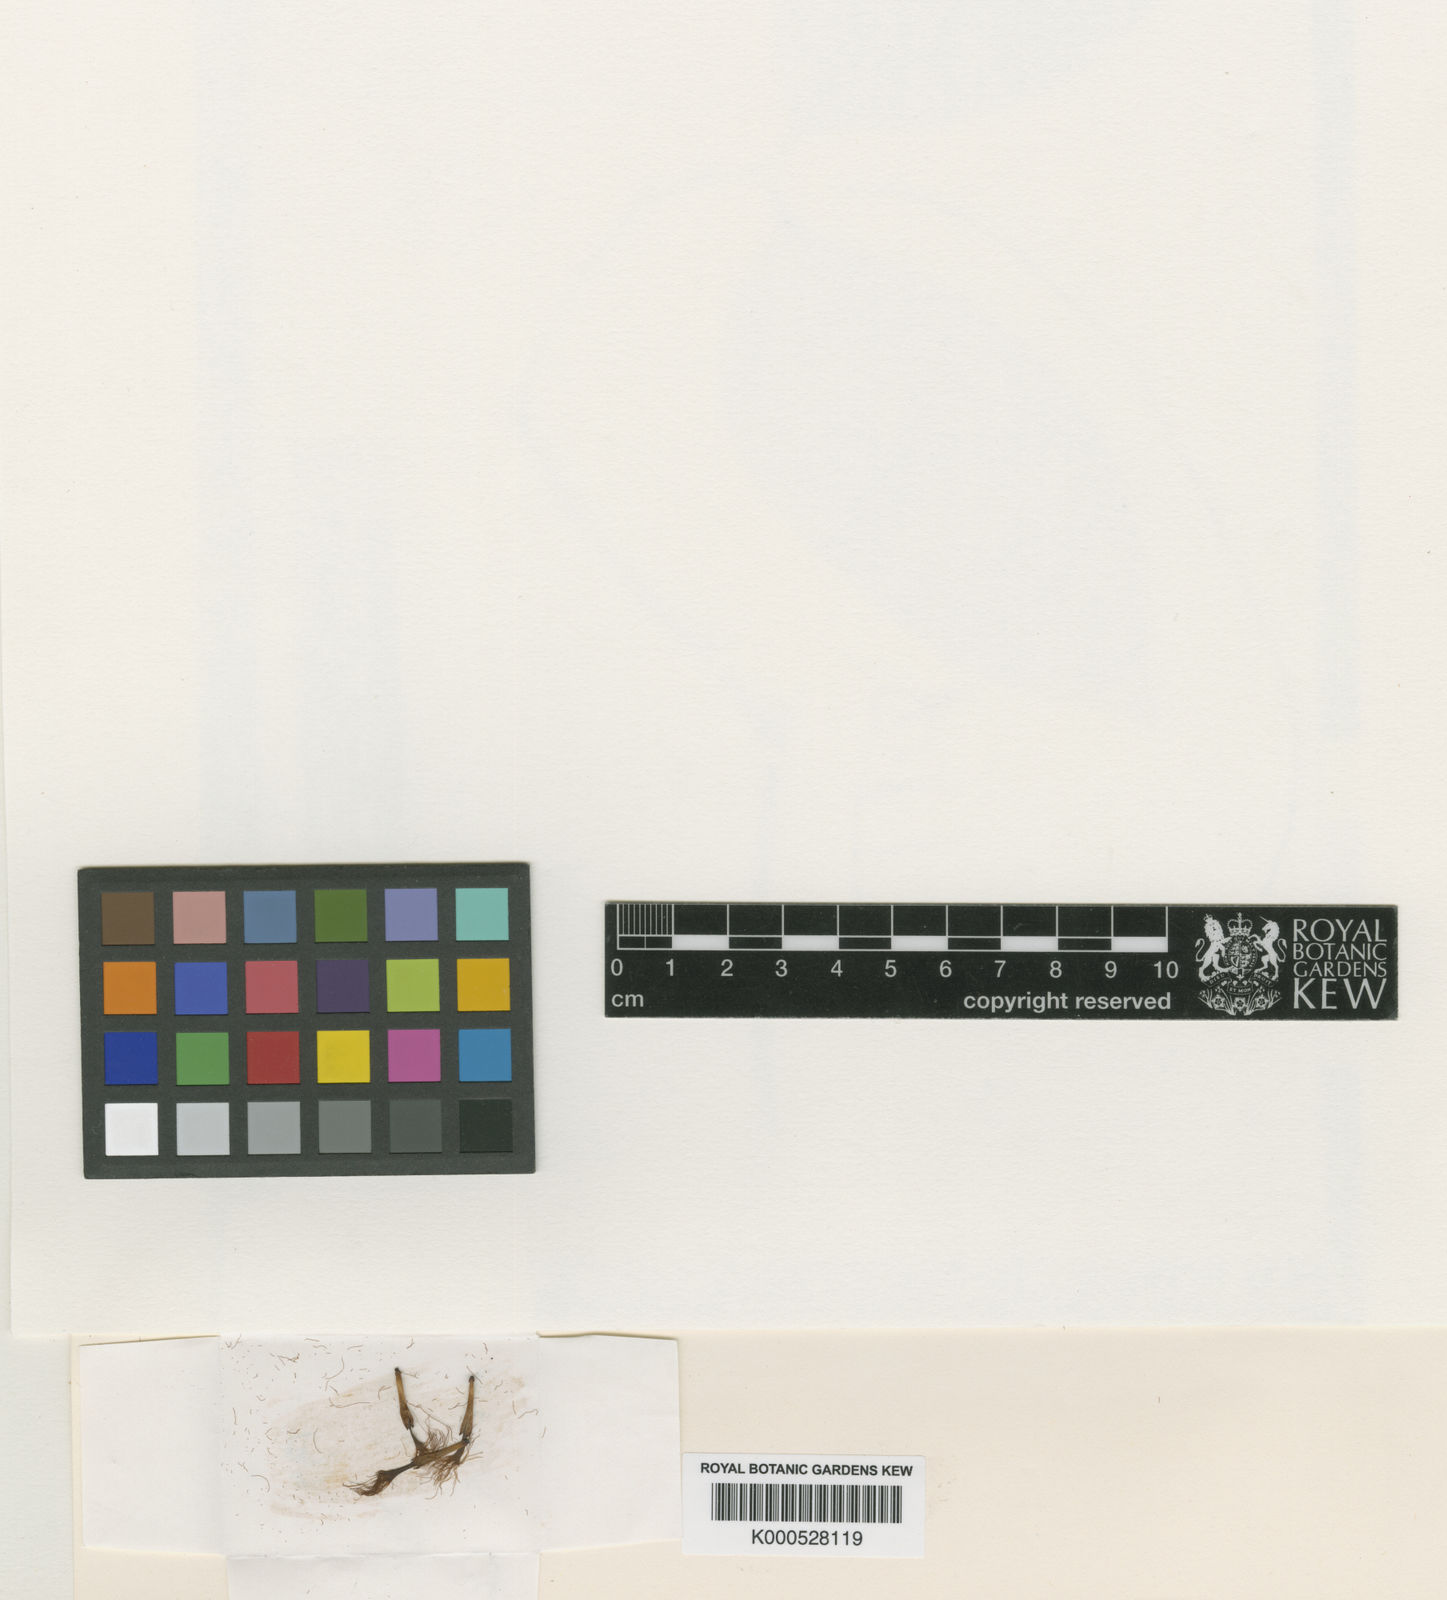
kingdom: Plantae
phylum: Tracheophyta
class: Magnoliopsida
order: Fabales
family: Fabaceae
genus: Zygia
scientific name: Zygia bifoliola
